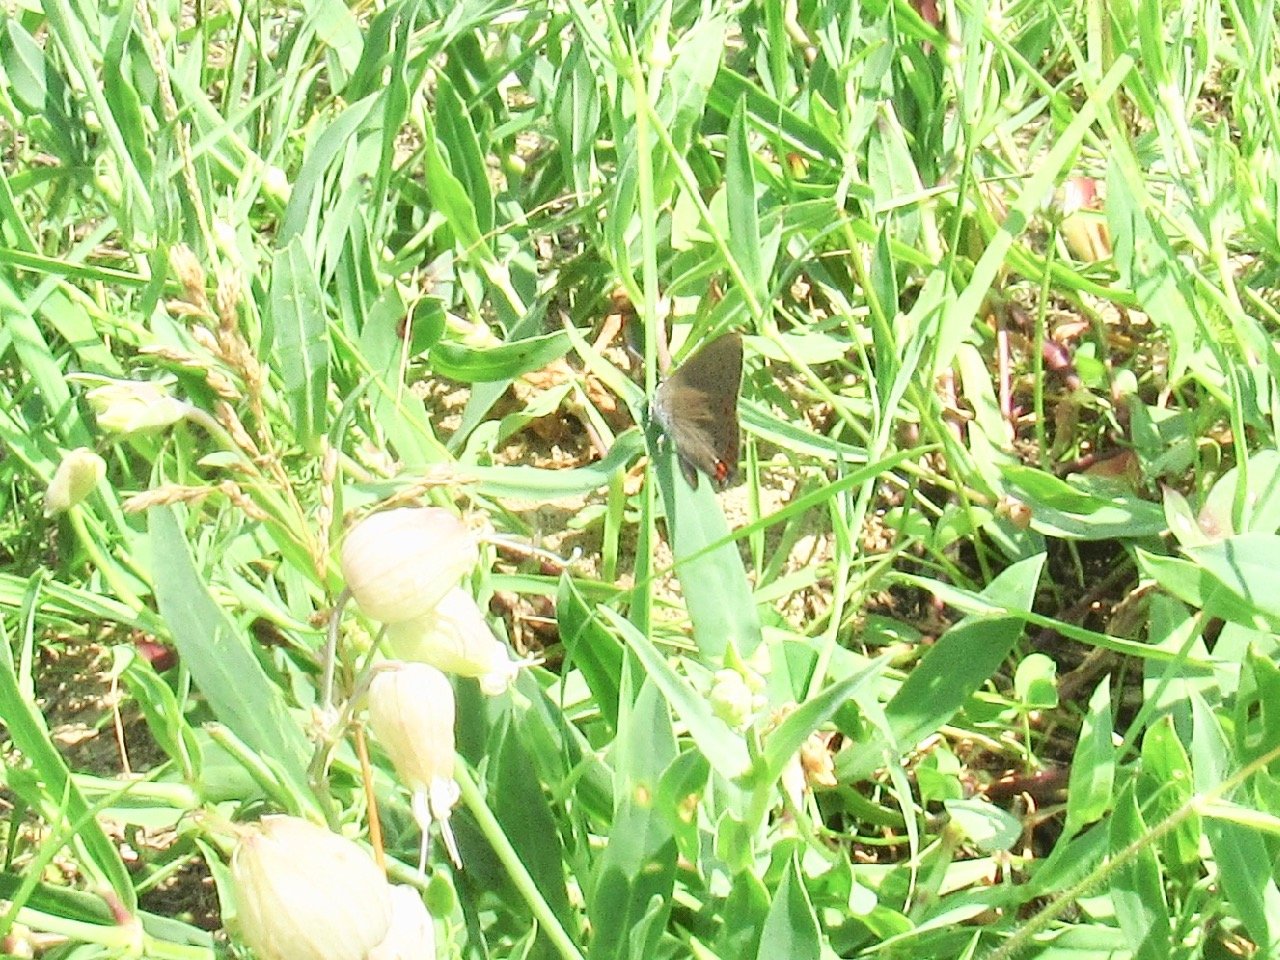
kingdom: Animalia
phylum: Arthropoda
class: Insecta
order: Lepidoptera
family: Lycaenidae
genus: Harkenclenus
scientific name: Harkenclenus titus
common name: Coral Hairstreak
